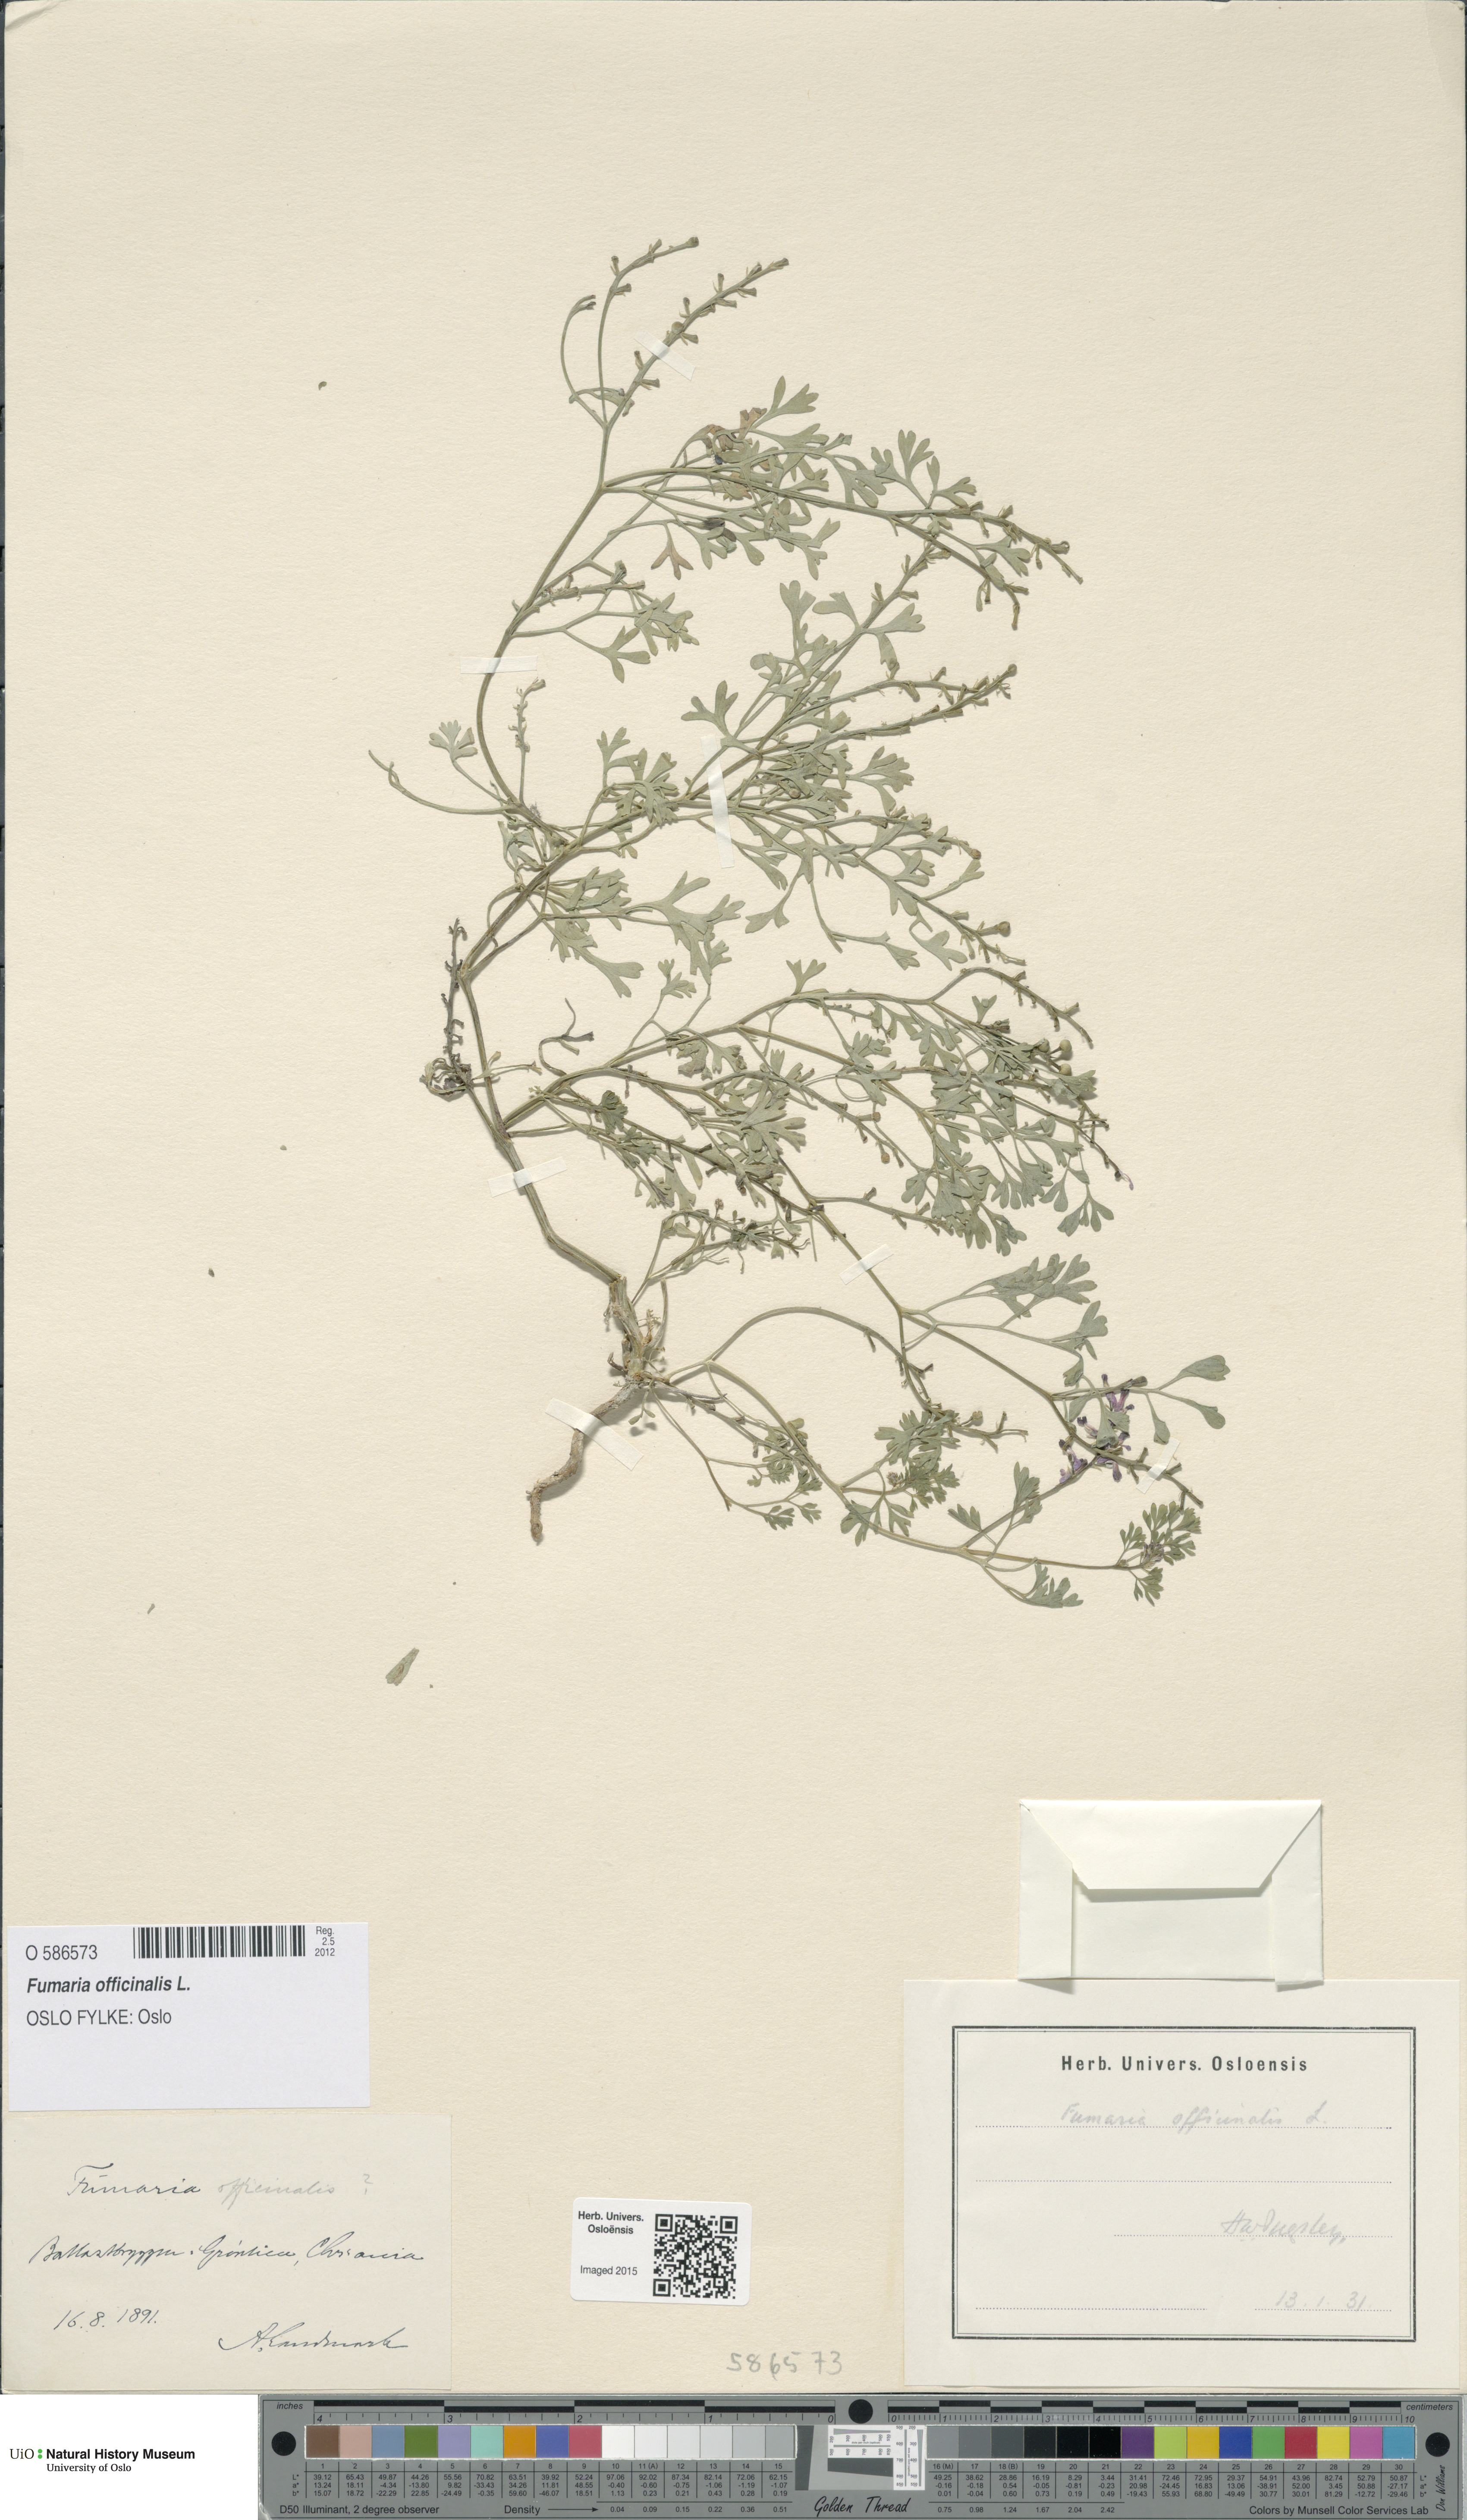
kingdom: Plantae
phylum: Tracheophyta
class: Magnoliopsida
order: Ranunculales
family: Papaveraceae
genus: Fumaria
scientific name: Fumaria officinalis
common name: Common fumitory
